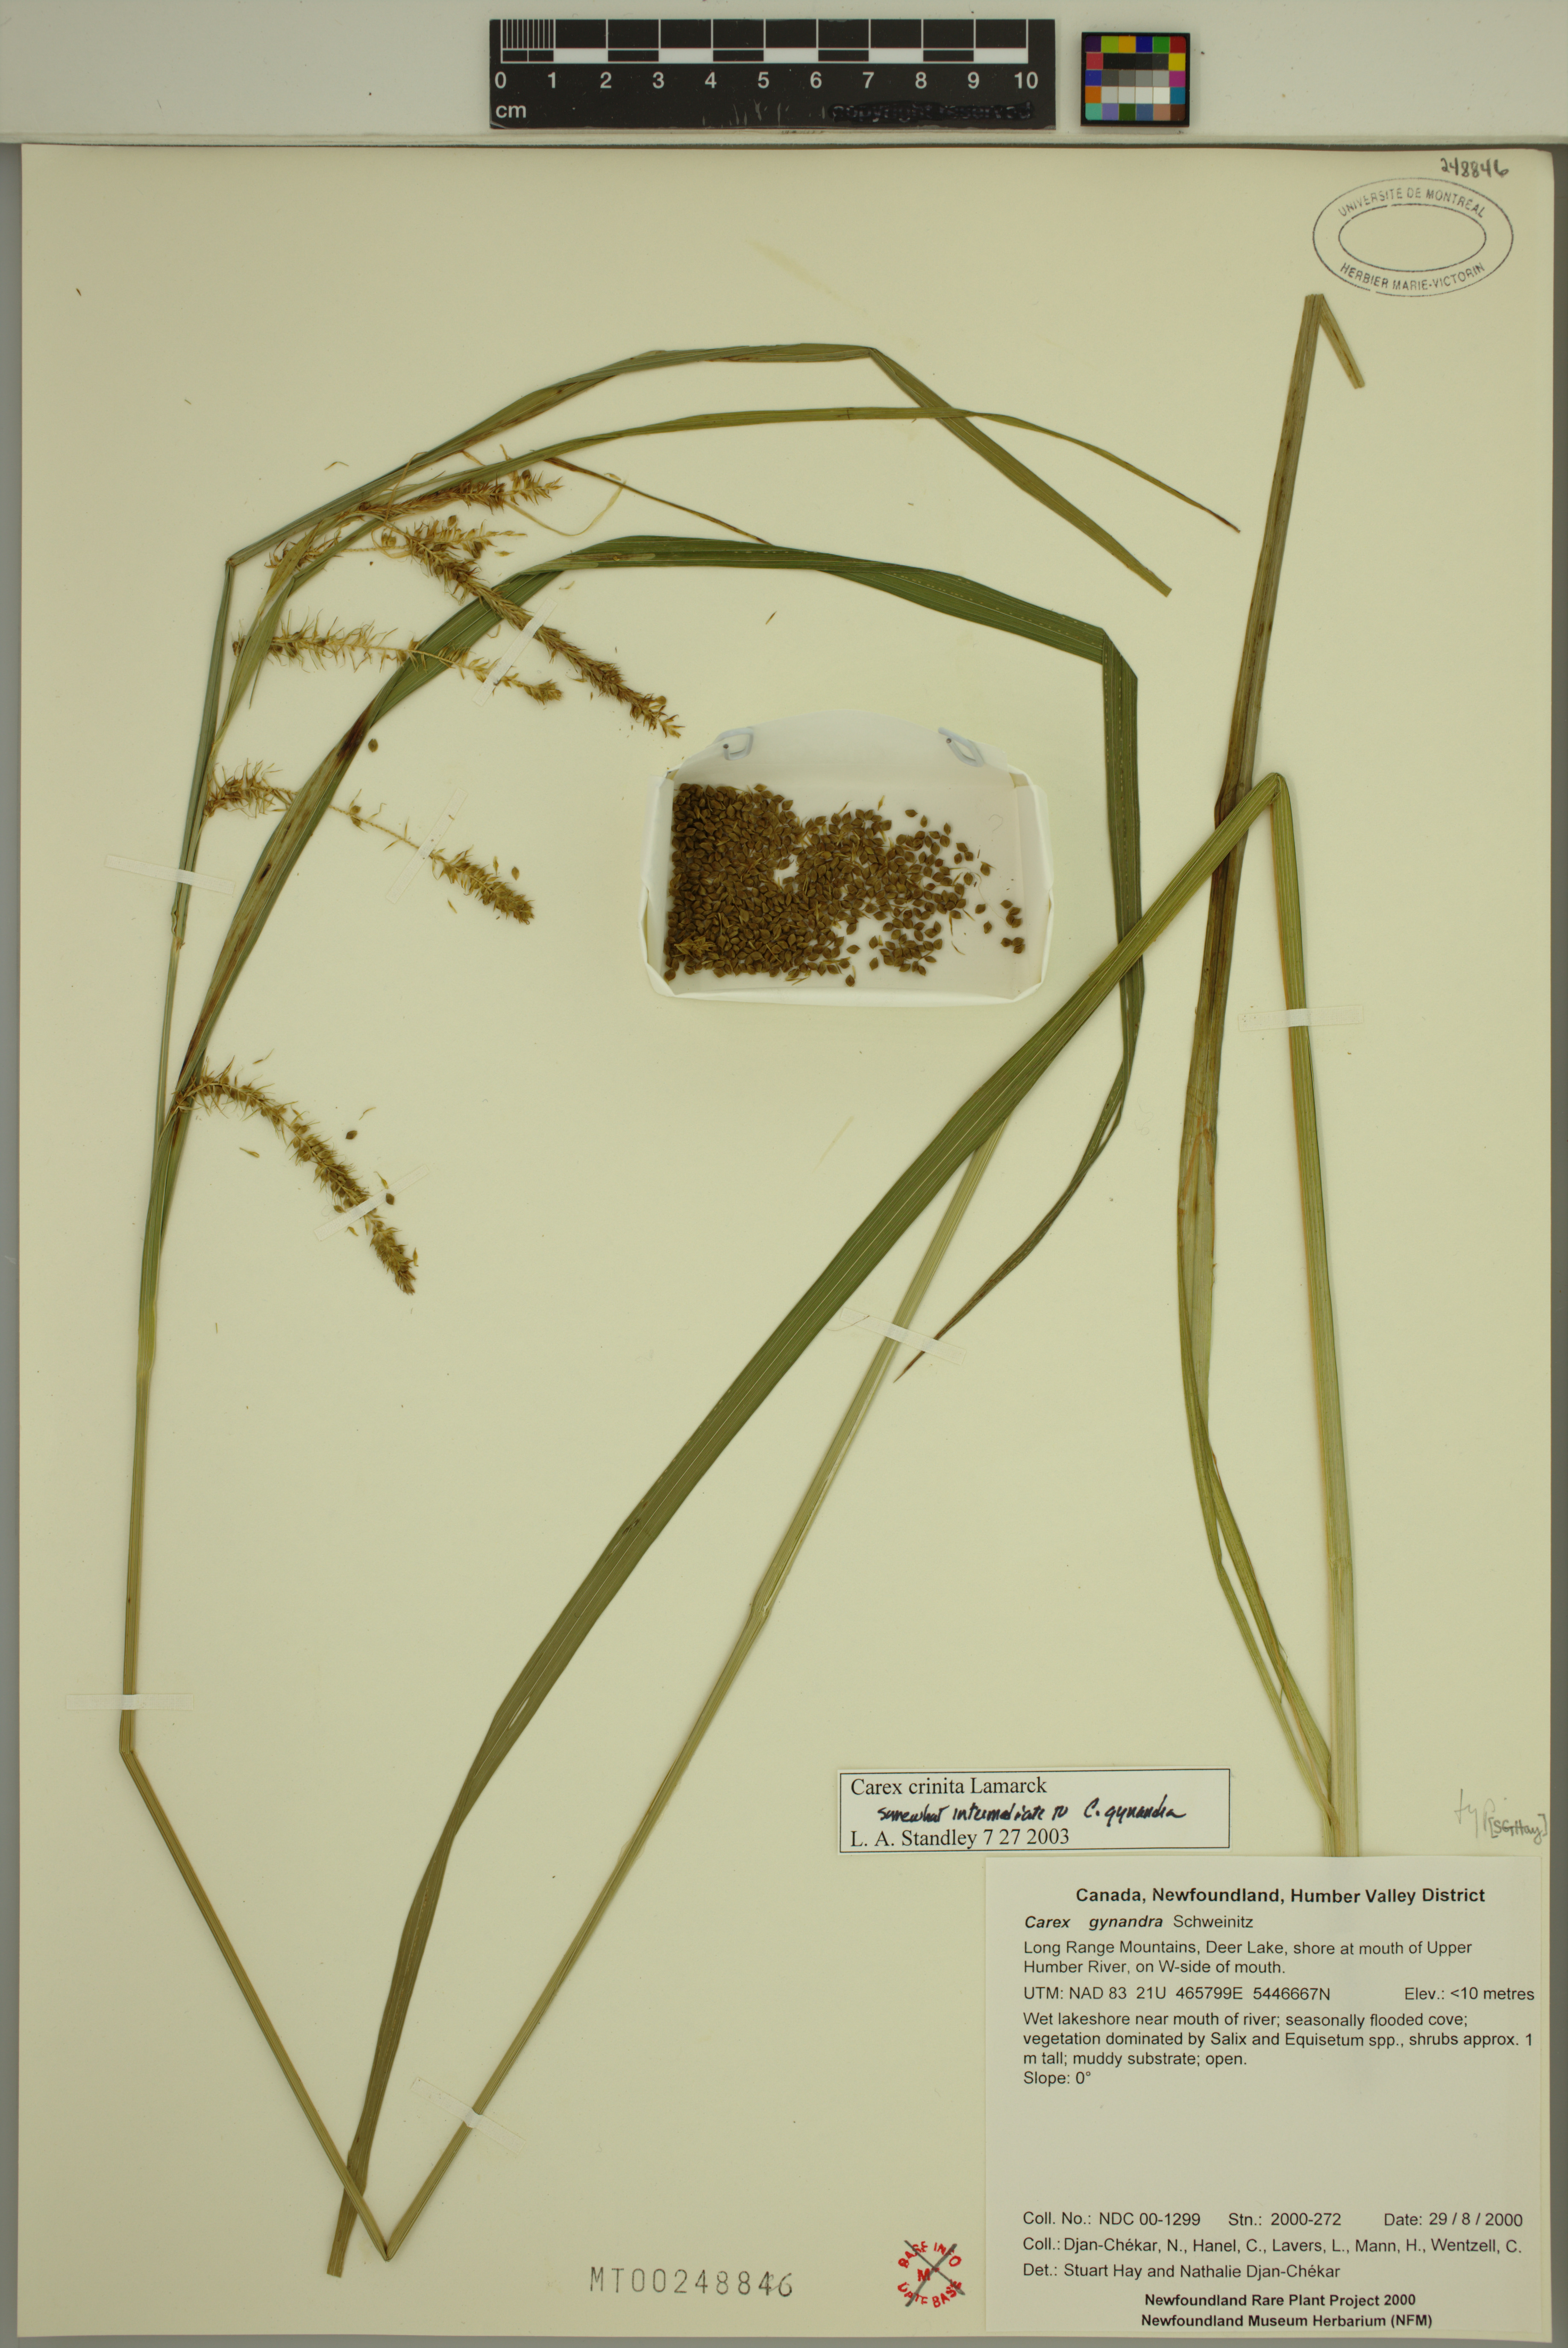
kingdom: Plantae
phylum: Tracheophyta
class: Liliopsida
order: Poales
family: Cyperaceae
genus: Carex
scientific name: Carex crinita
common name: Fringed sedge
